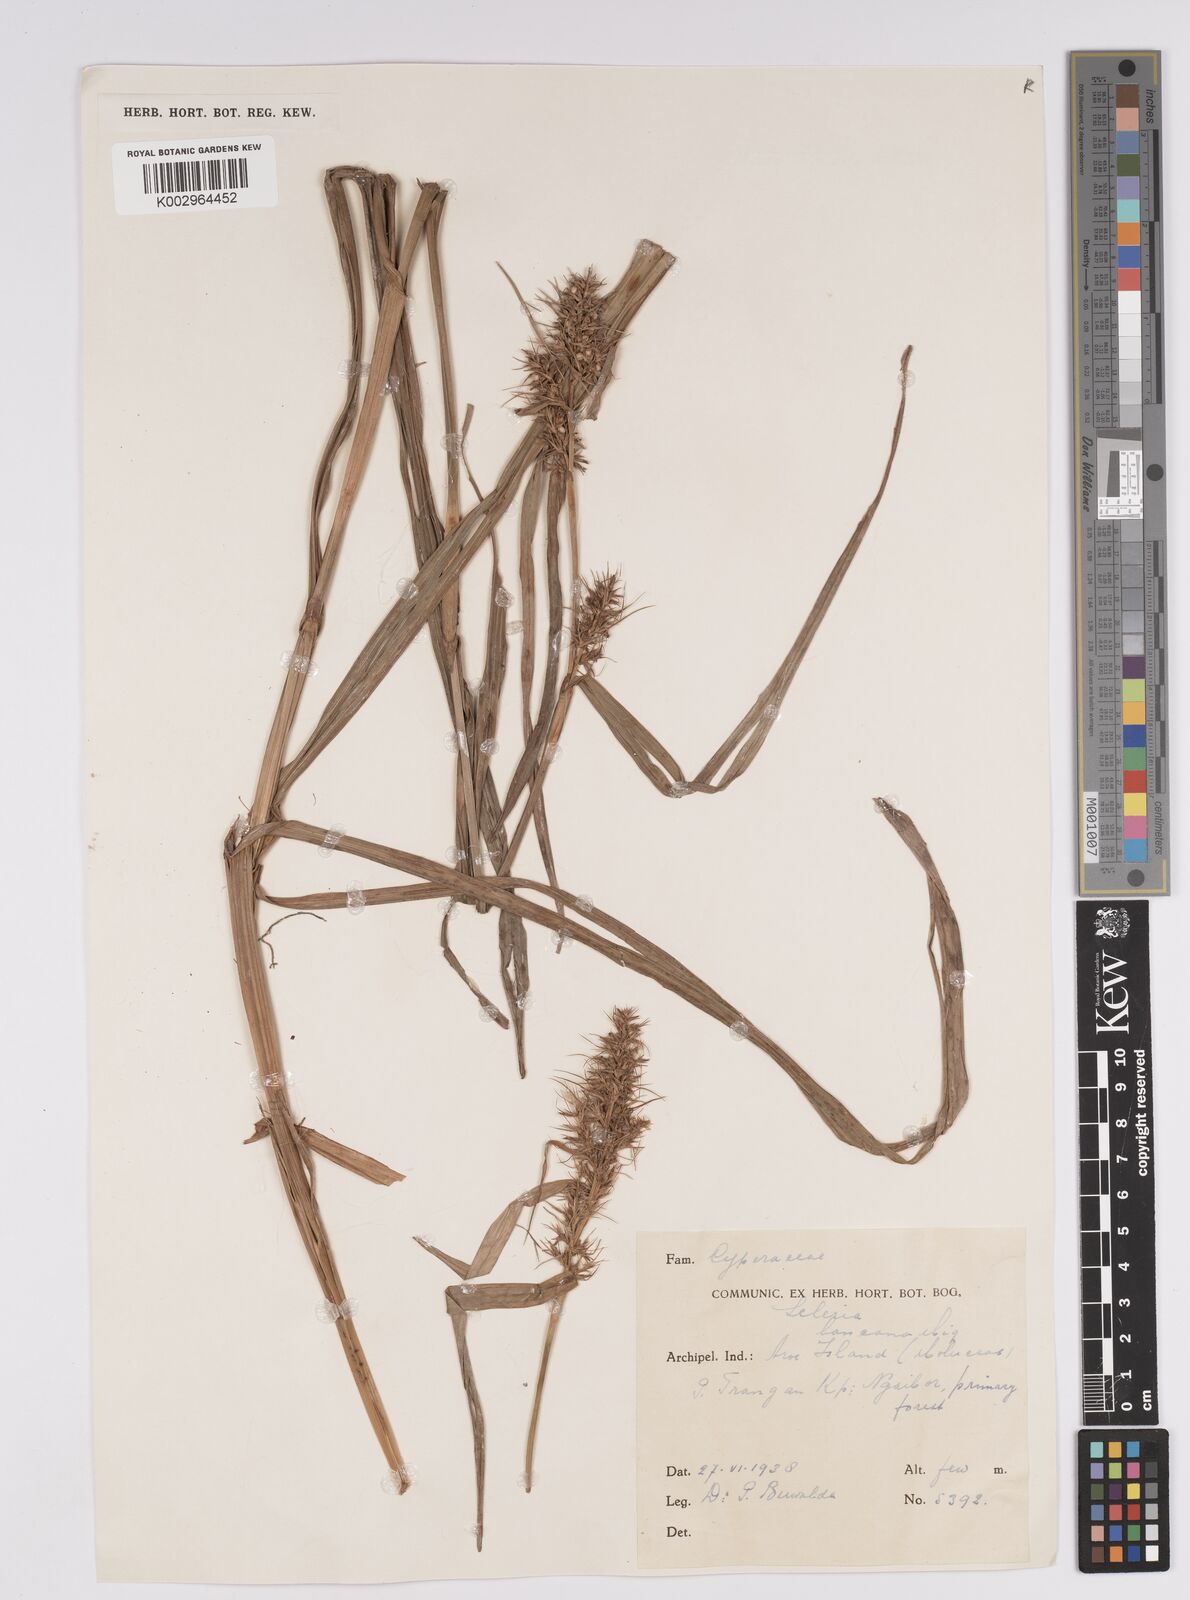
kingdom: Plantae
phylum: Tracheophyta
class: Liliopsida
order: Poales
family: Cyperaceae
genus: Scleria
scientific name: Scleria ciliaris
